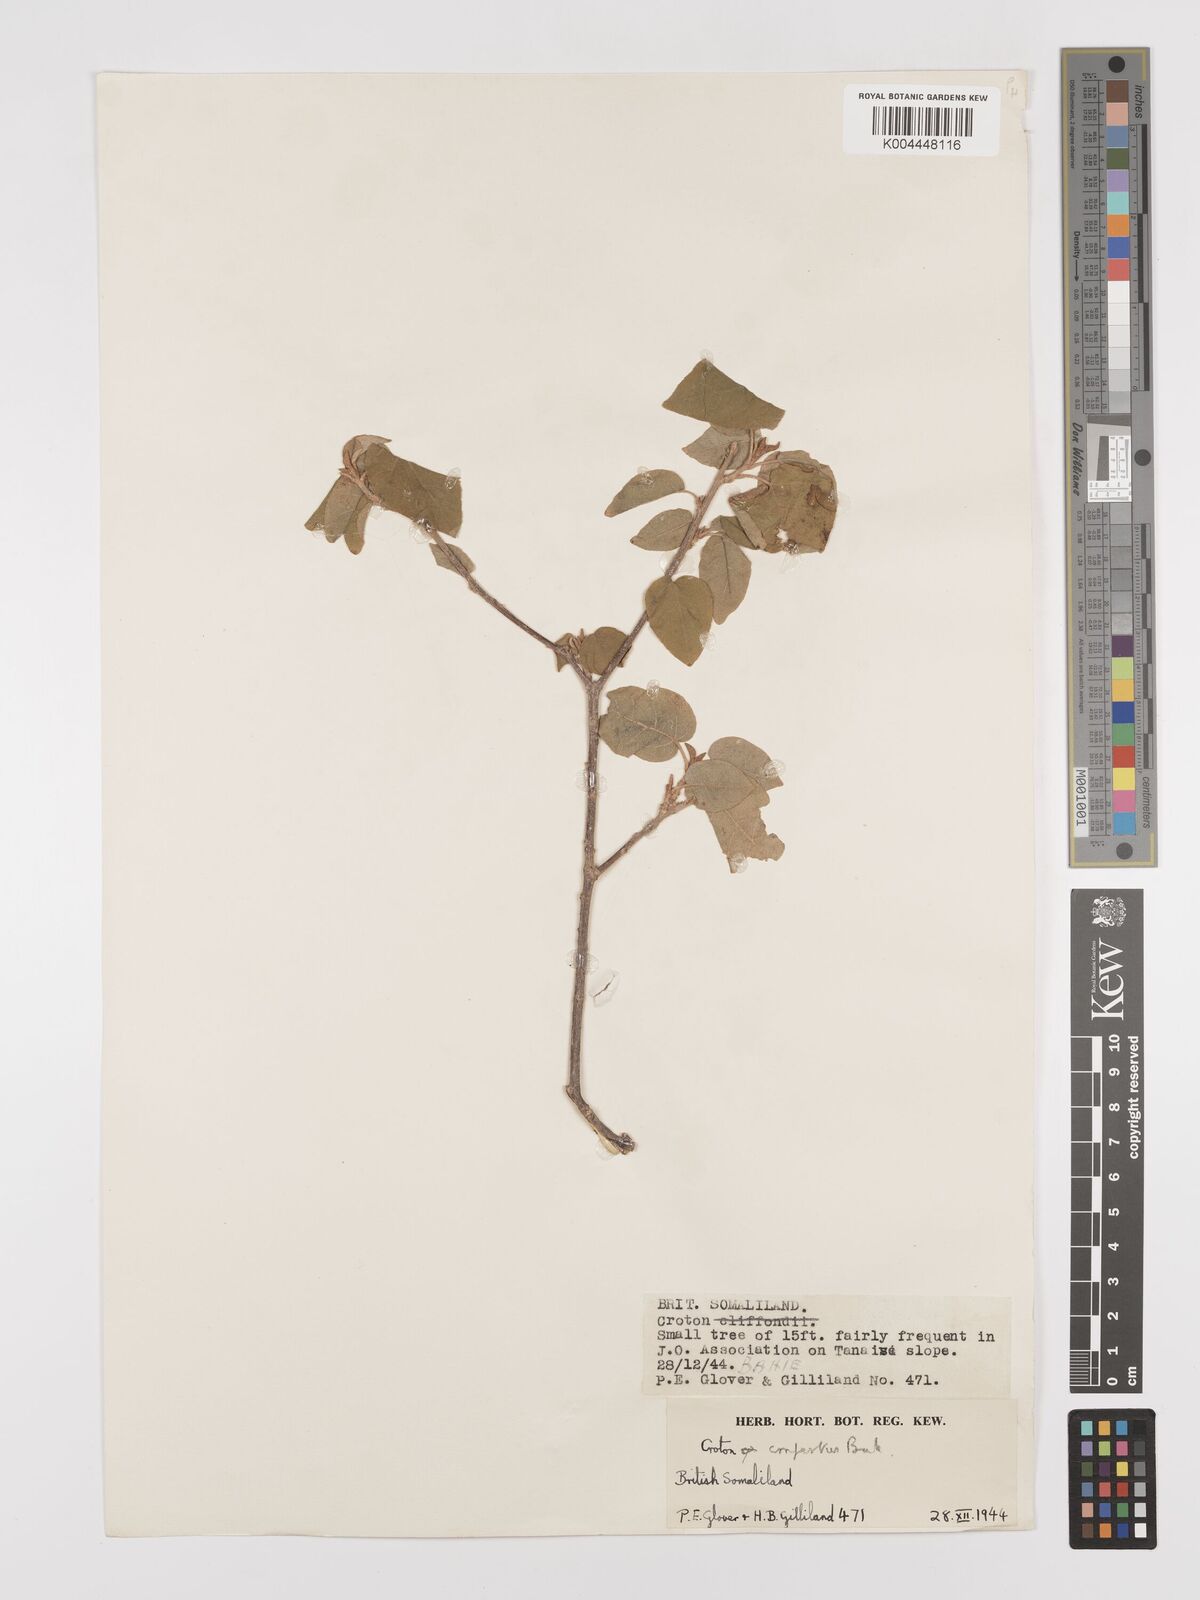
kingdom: Plantae
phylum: Tracheophyta
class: Magnoliopsida
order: Malpighiales
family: Euphorbiaceae
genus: Croton
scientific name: Croton confertus
